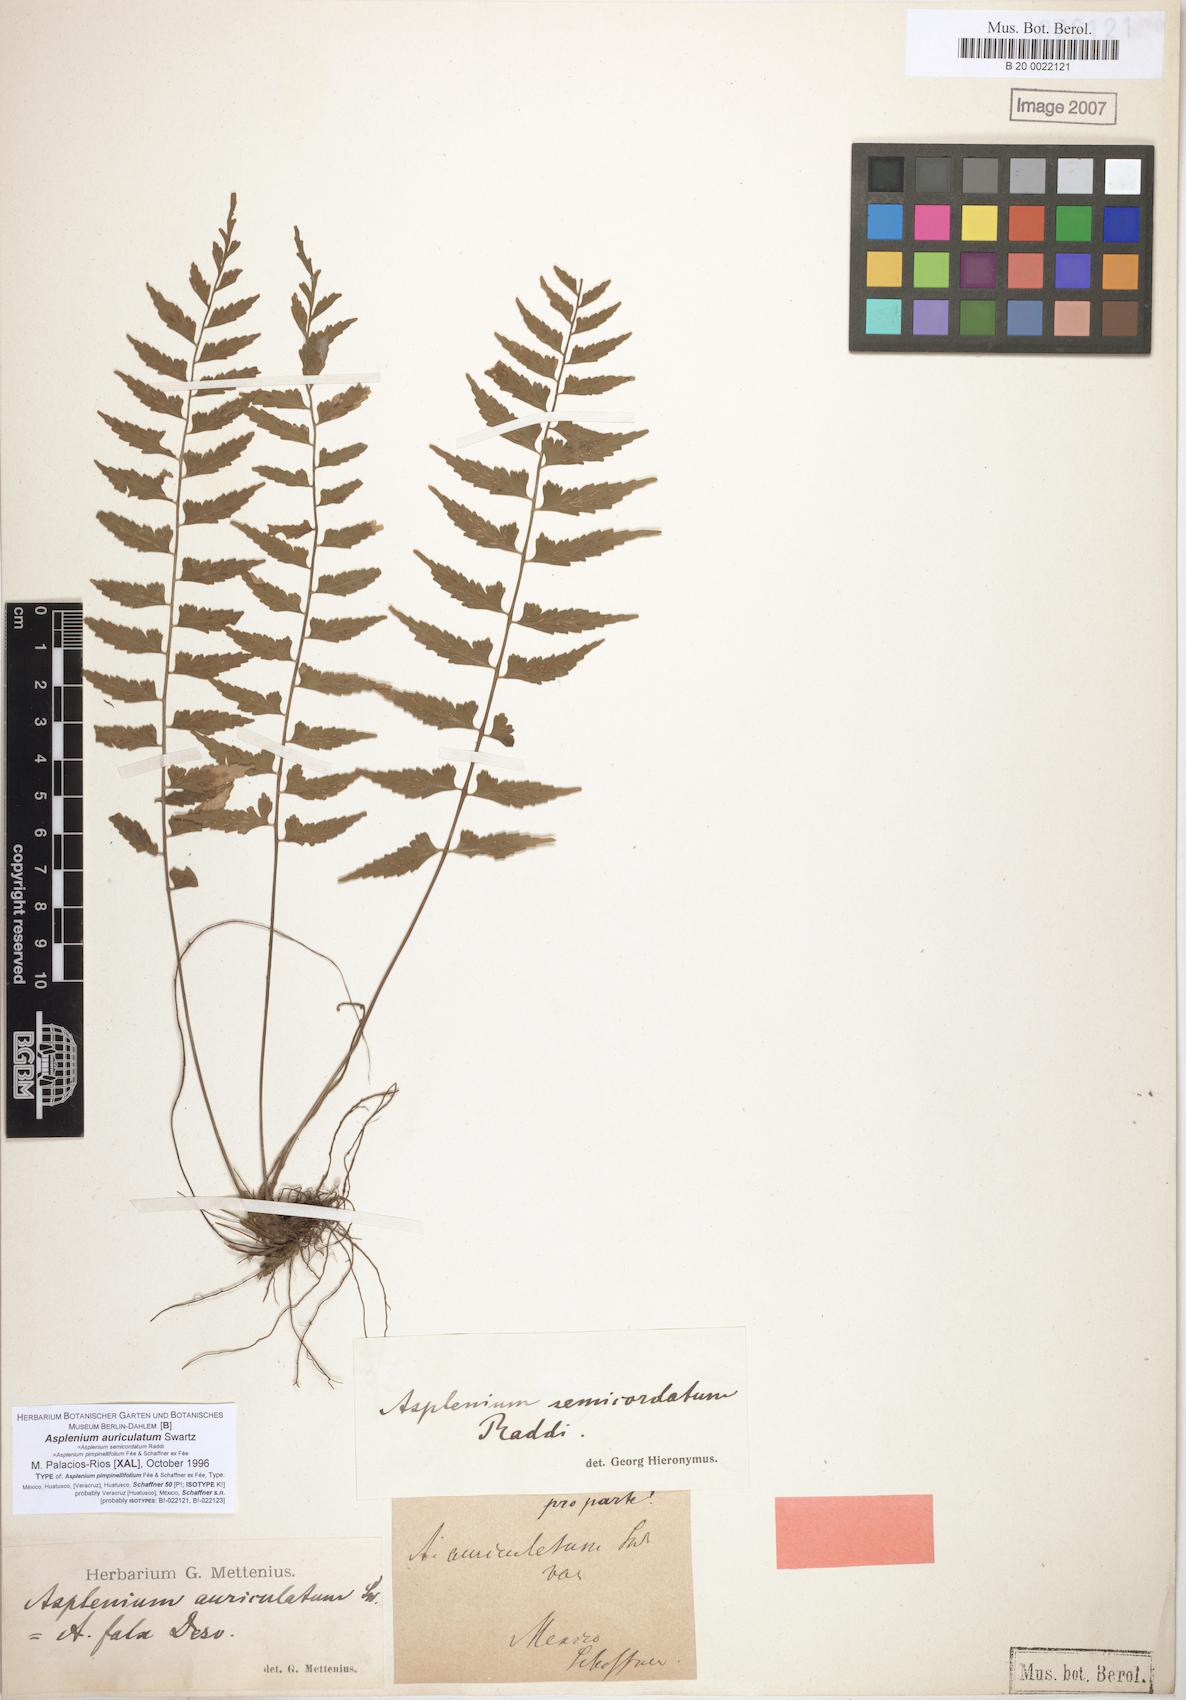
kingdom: Plantae
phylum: Tracheophyta
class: Polypodiopsida
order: Polypodiales
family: Aspleniaceae
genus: Asplenium
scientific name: Asplenium auriculatum
